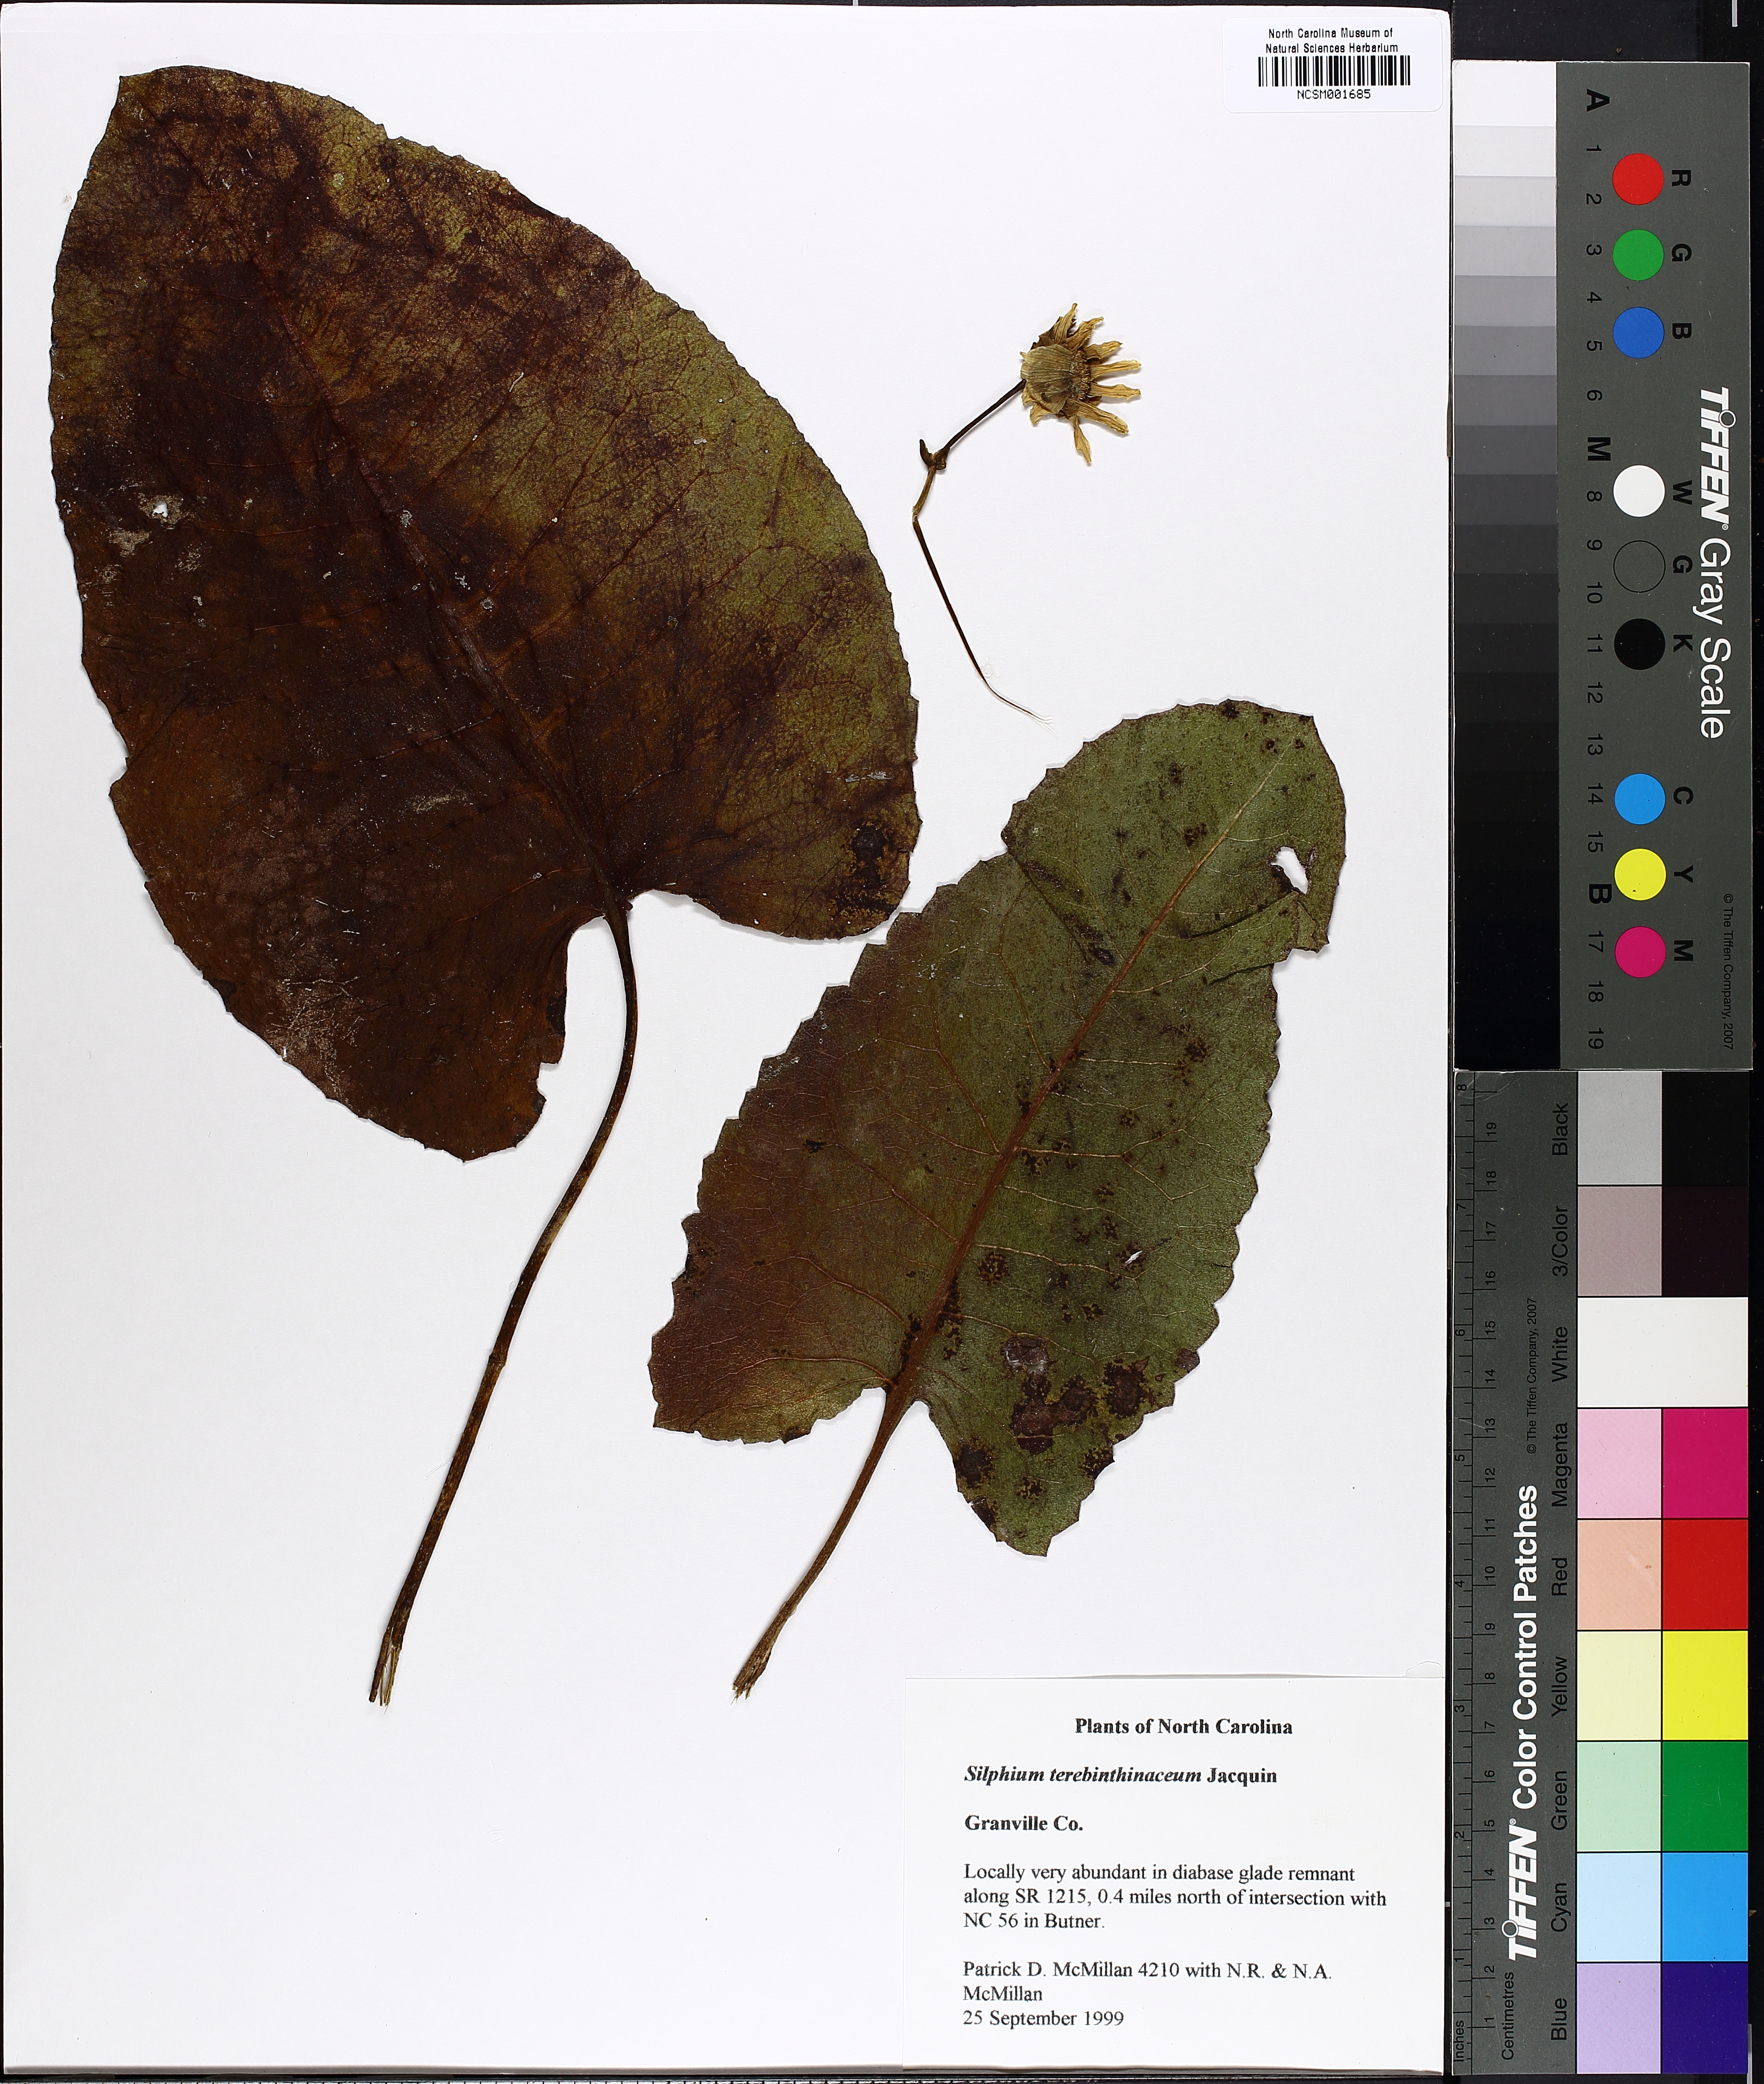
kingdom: Plantae
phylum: Tracheophyta
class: Magnoliopsida
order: Asterales
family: Asteraceae
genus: Silphium
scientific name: Silphium terebinthinaceum
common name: Basal-leaf rosinweed
